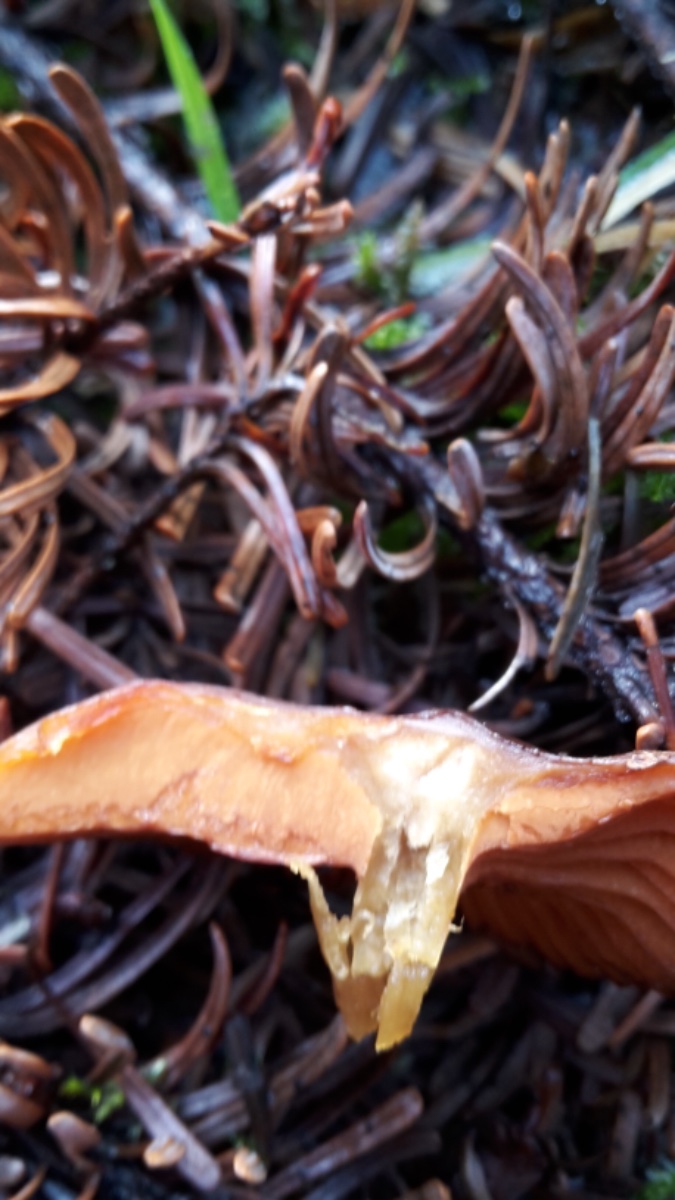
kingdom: Fungi
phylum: Basidiomycota
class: Agaricomycetes
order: Agaricales
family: Cortinariaceae
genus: Cortinarius
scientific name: Cortinarius cinnamomeus
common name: kanel-slørhat
